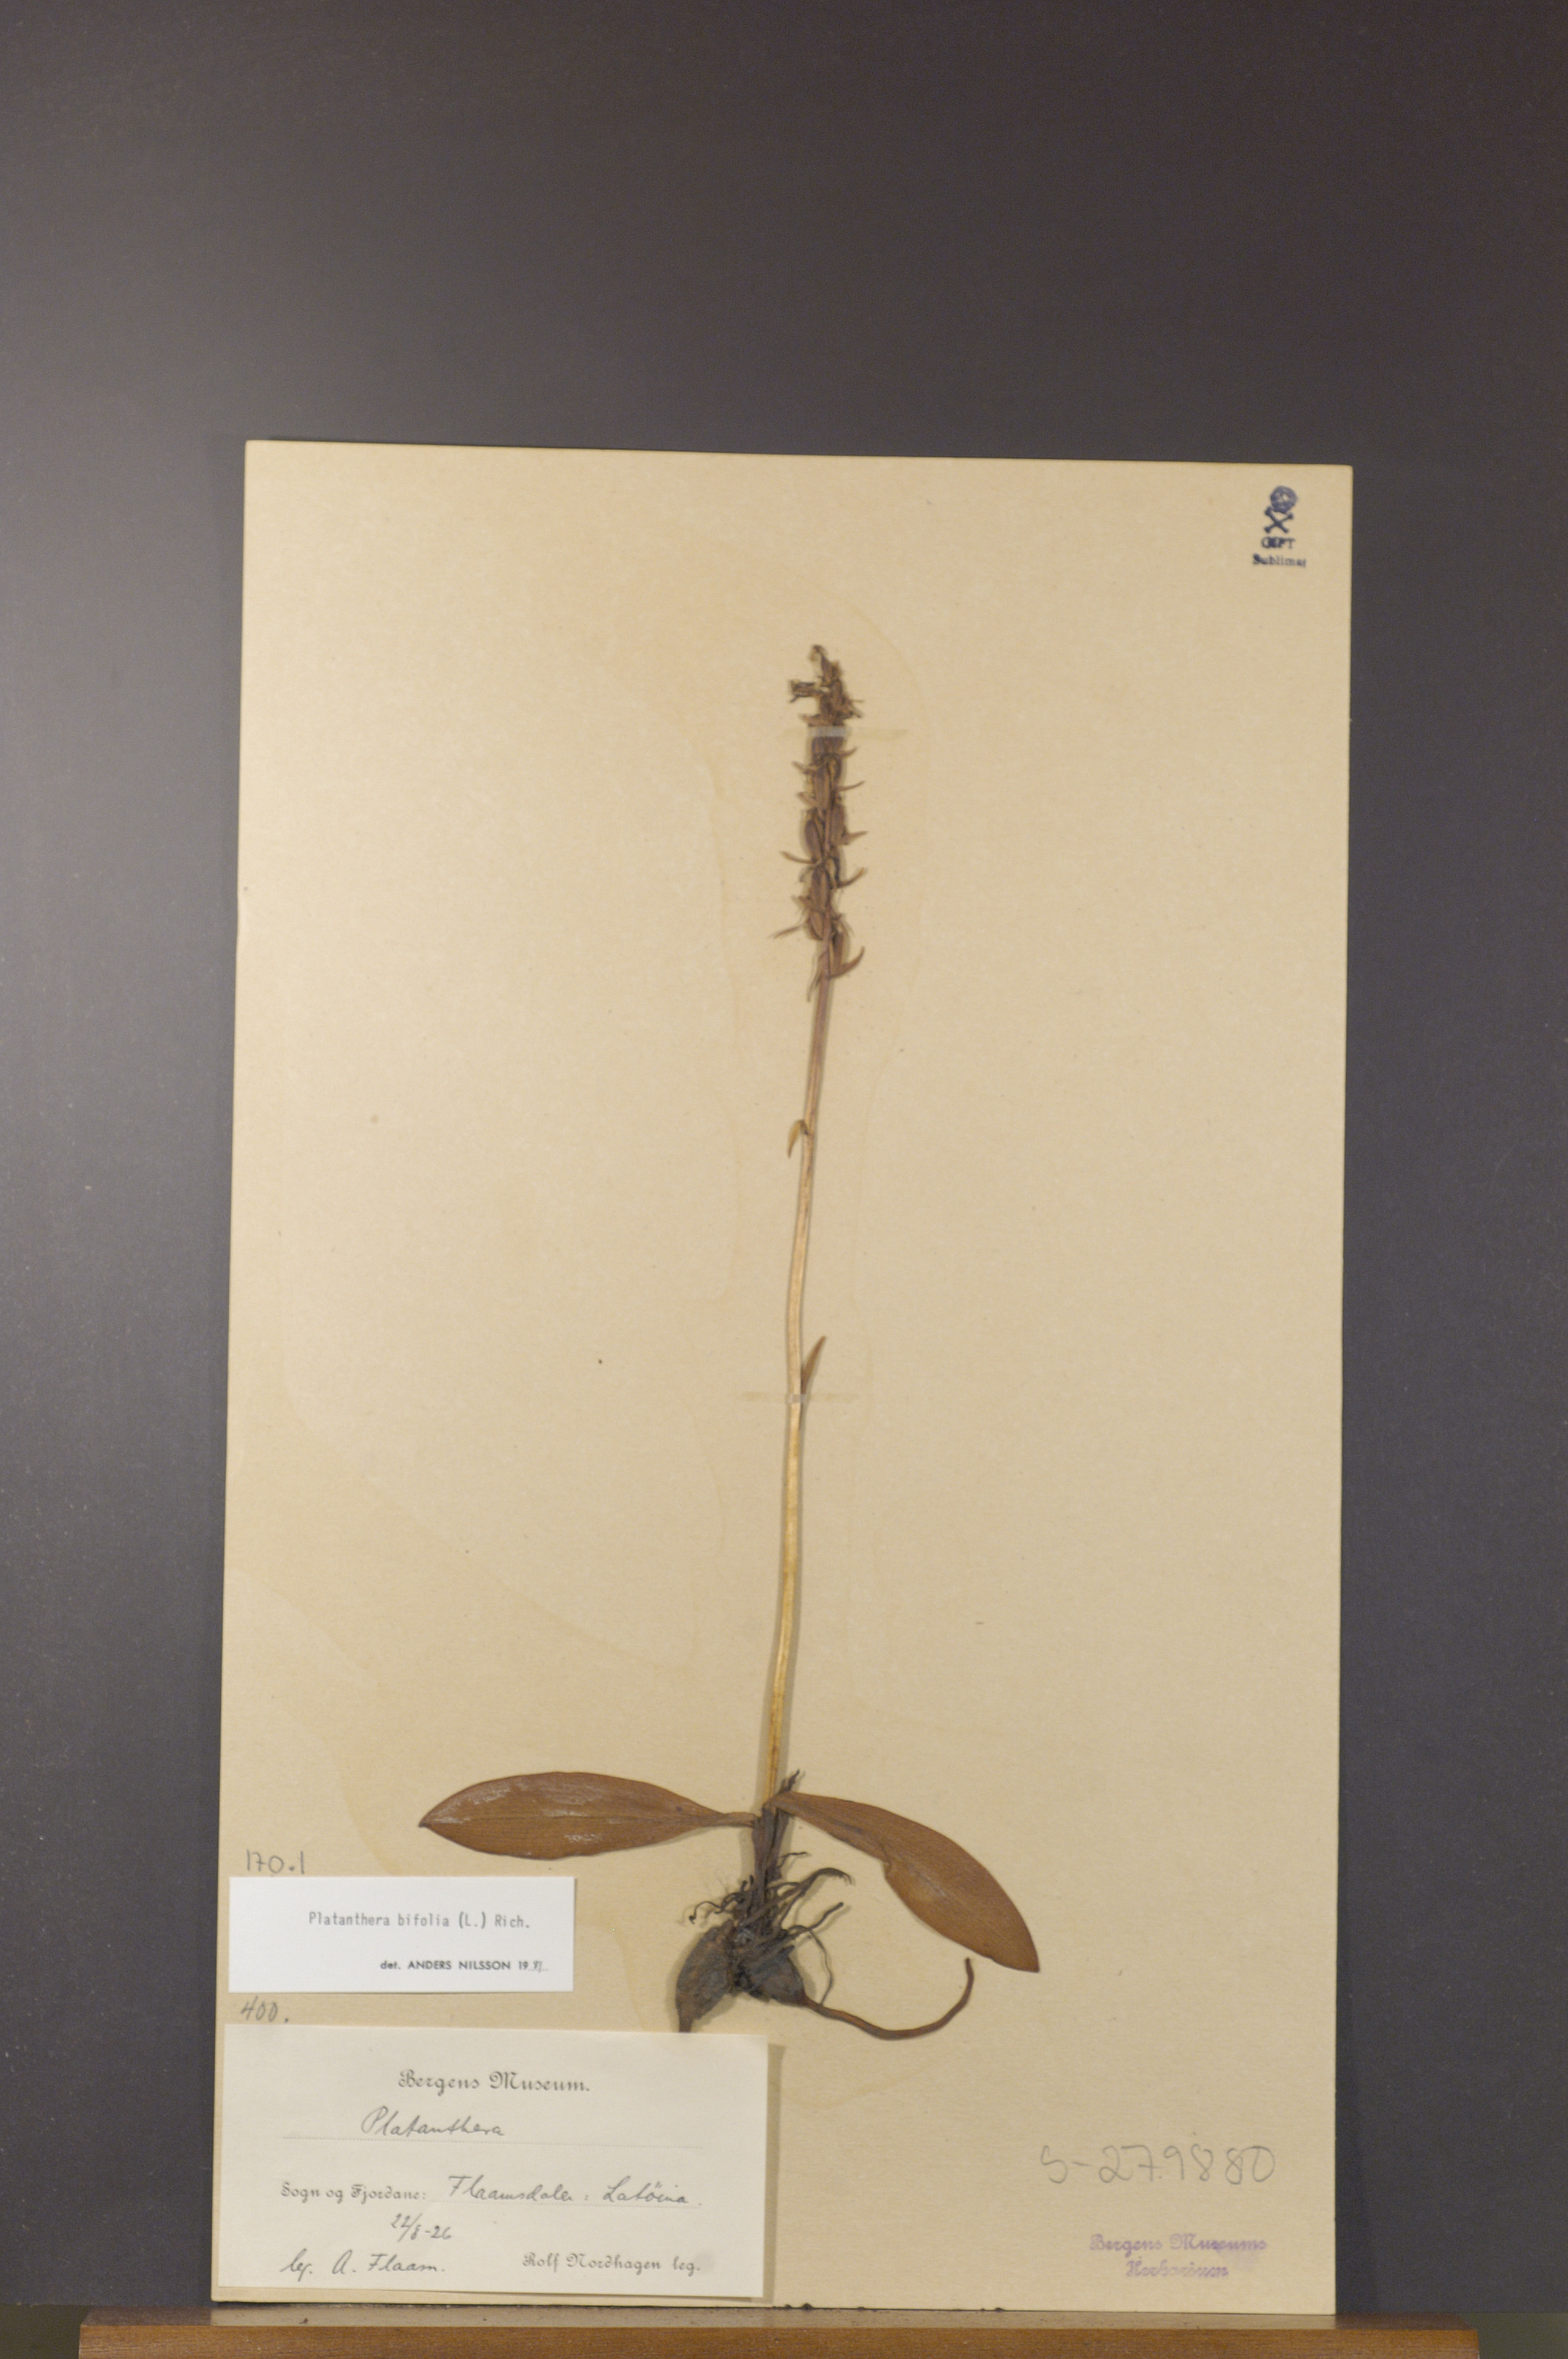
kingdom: Plantae
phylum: Tracheophyta
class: Liliopsida
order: Asparagales
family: Orchidaceae
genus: Platanthera
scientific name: Platanthera bifolia
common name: Lesser butterfly-orchid
